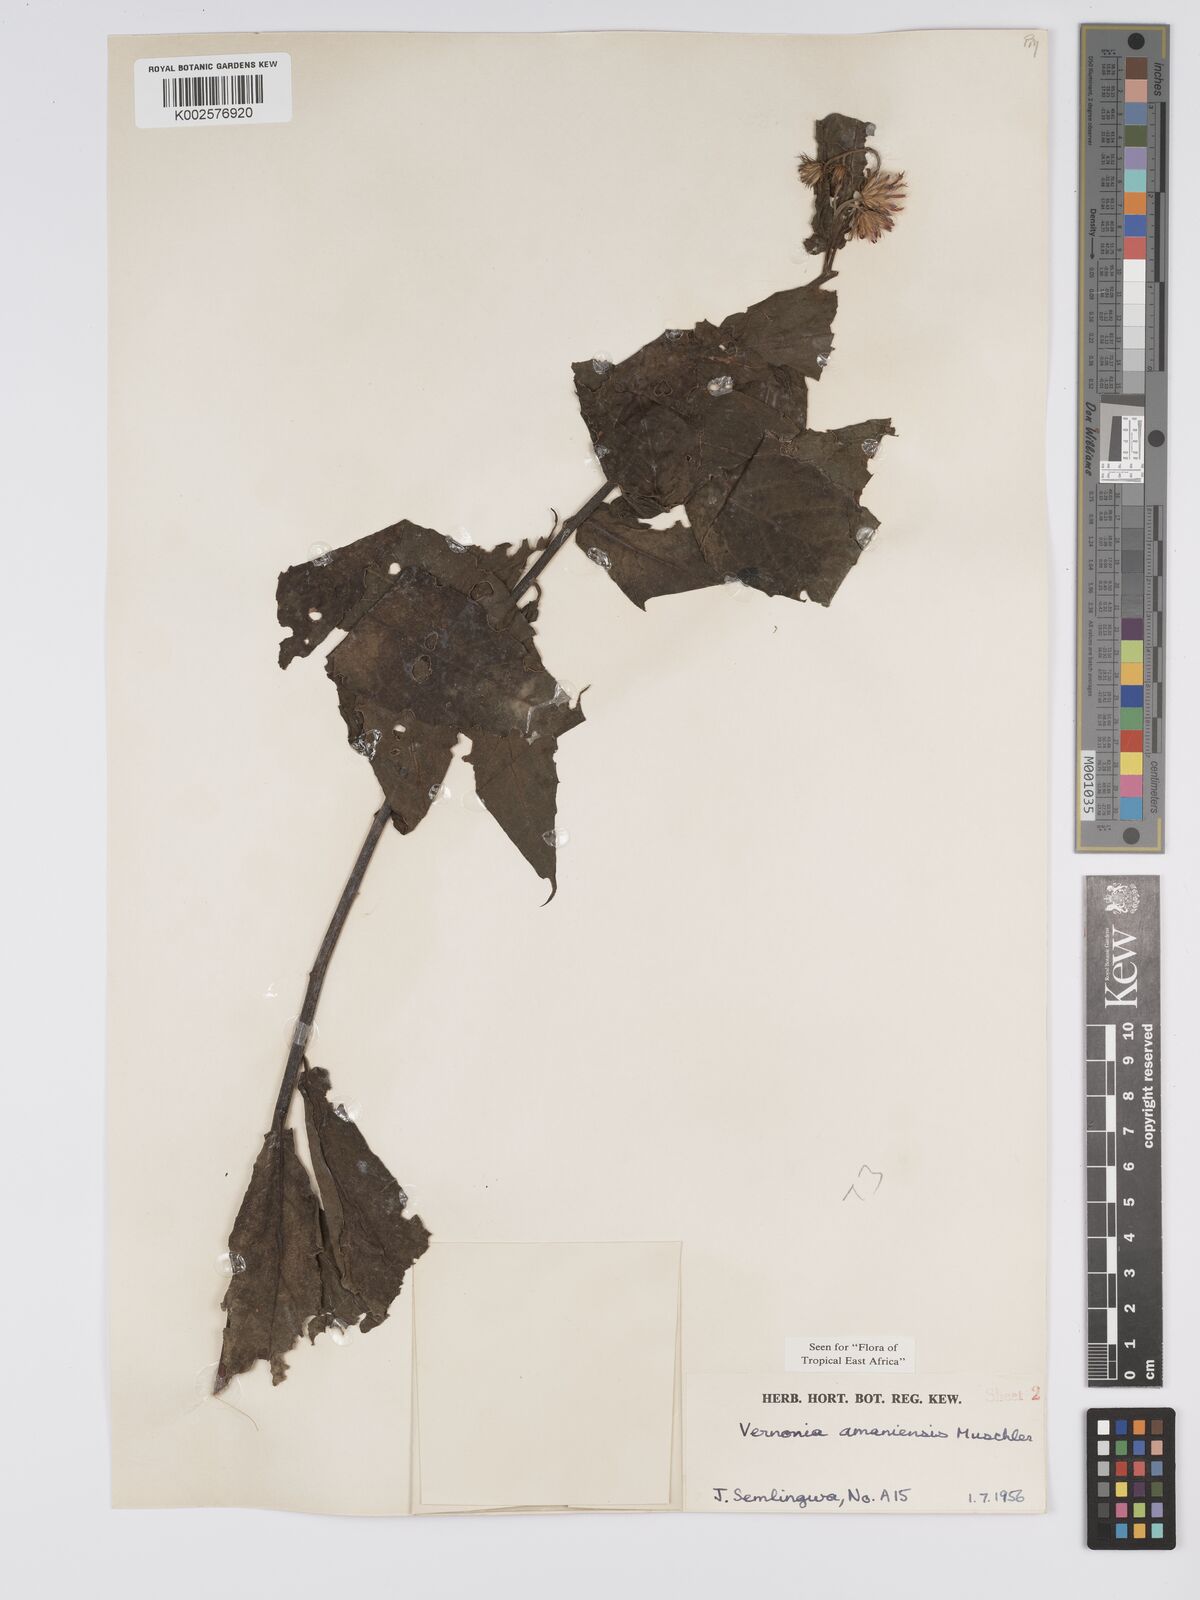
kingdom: Plantae
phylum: Tracheophyta
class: Magnoliopsida
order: Asterales
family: Asteraceae
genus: Jeffreycia
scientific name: Jeffreycia amaniensis
